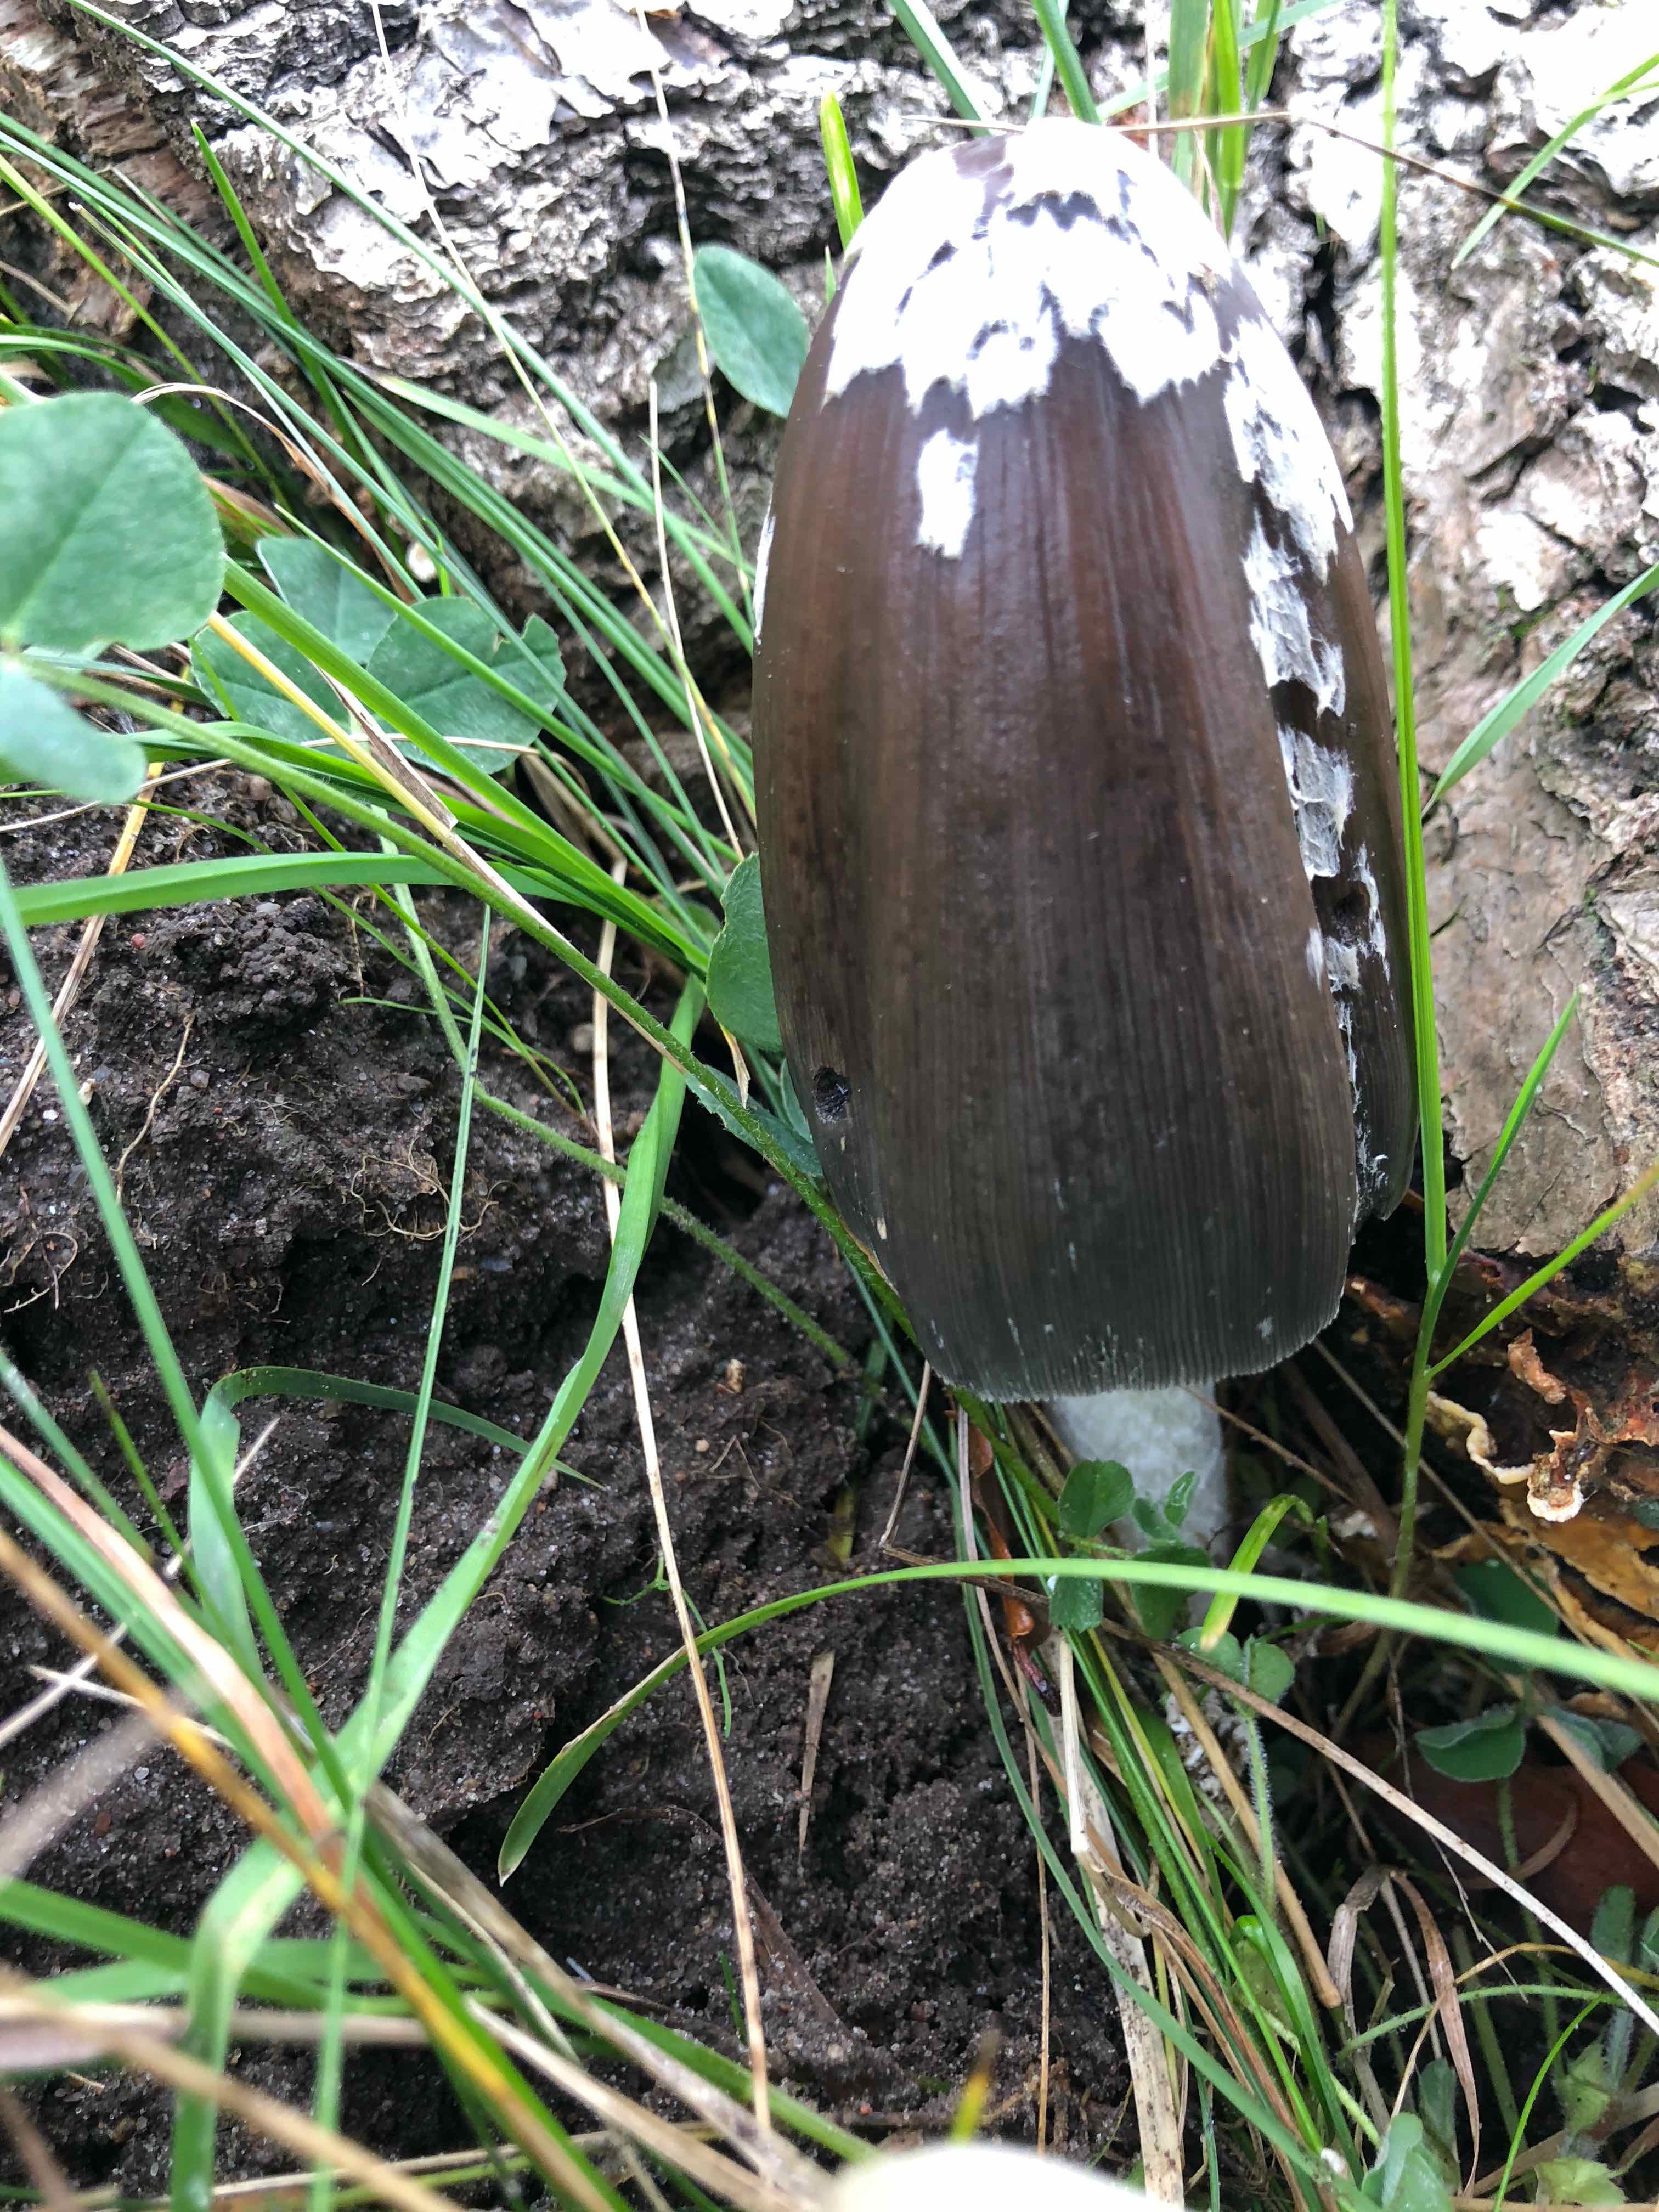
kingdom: Fungi
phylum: Basidiomycota
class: Agaricomycetes
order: Agaricales
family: Psathyrellaceae
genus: Coprinopsis
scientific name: Coprinopsis picacea
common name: skade-blækhat
